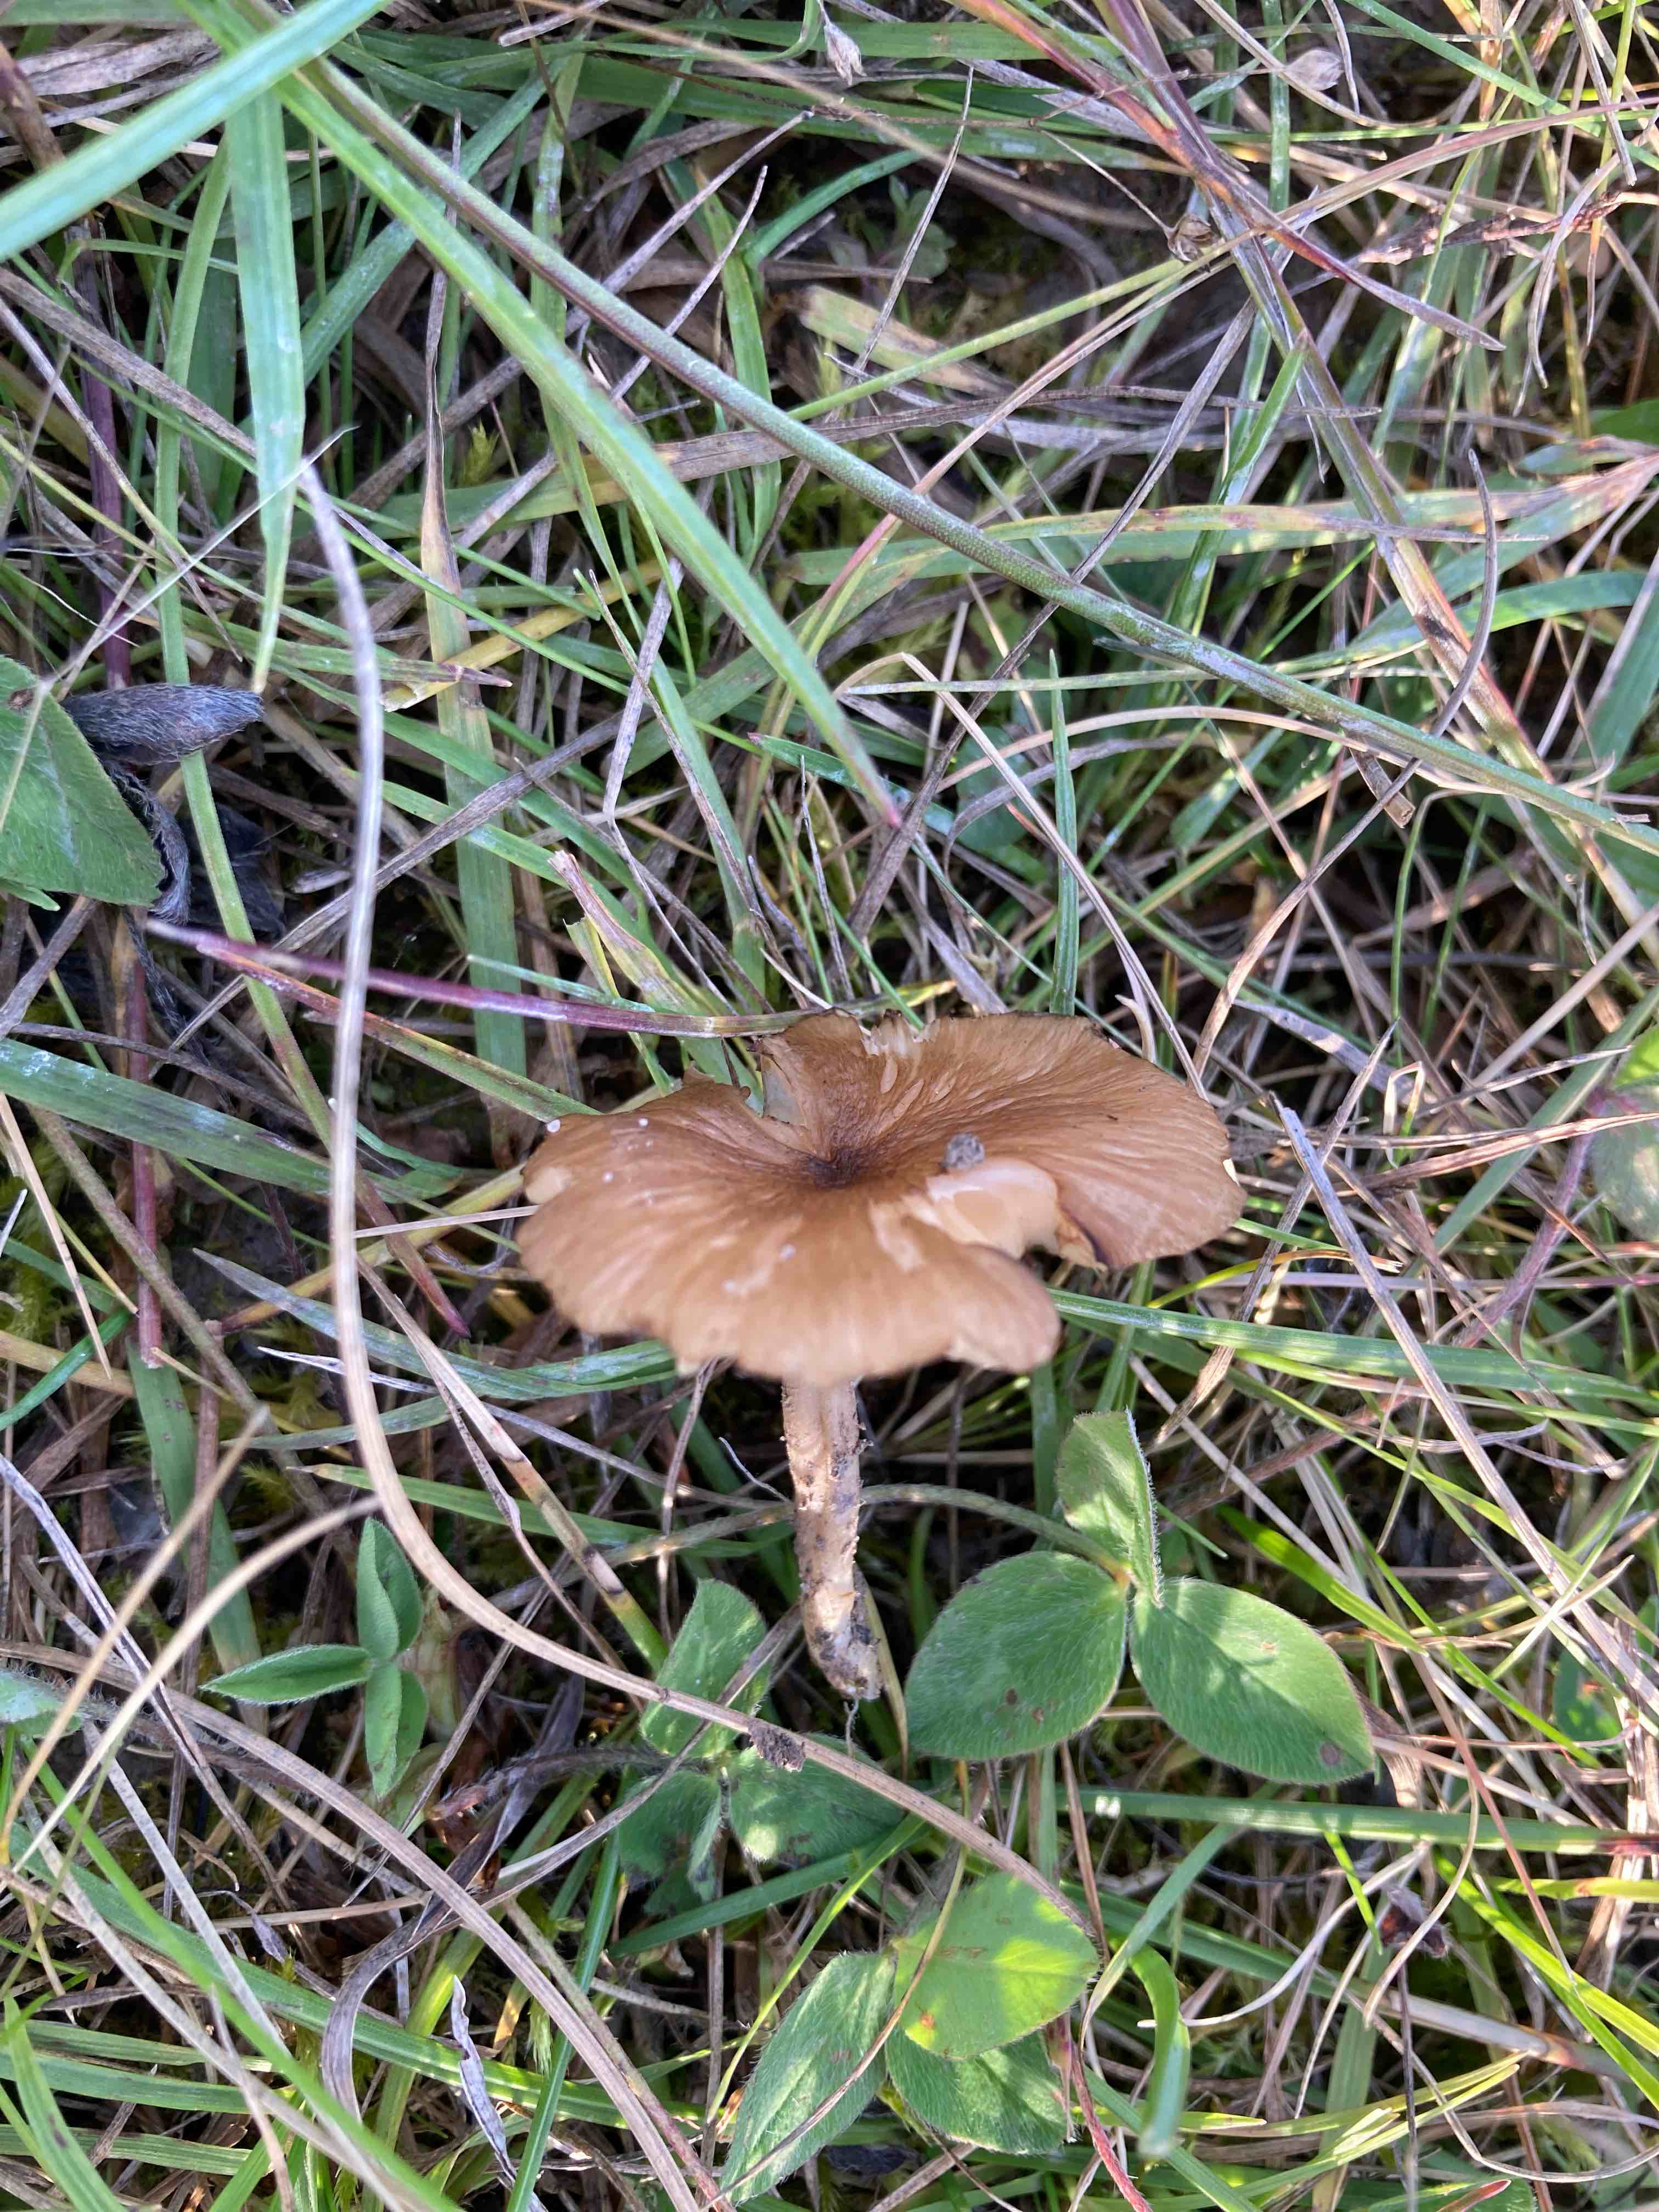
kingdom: Fungi
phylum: Basidiomycota
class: Agaricomycetes
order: Agaricales
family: Entolomataceae
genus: Entoloma
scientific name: Entoloma
